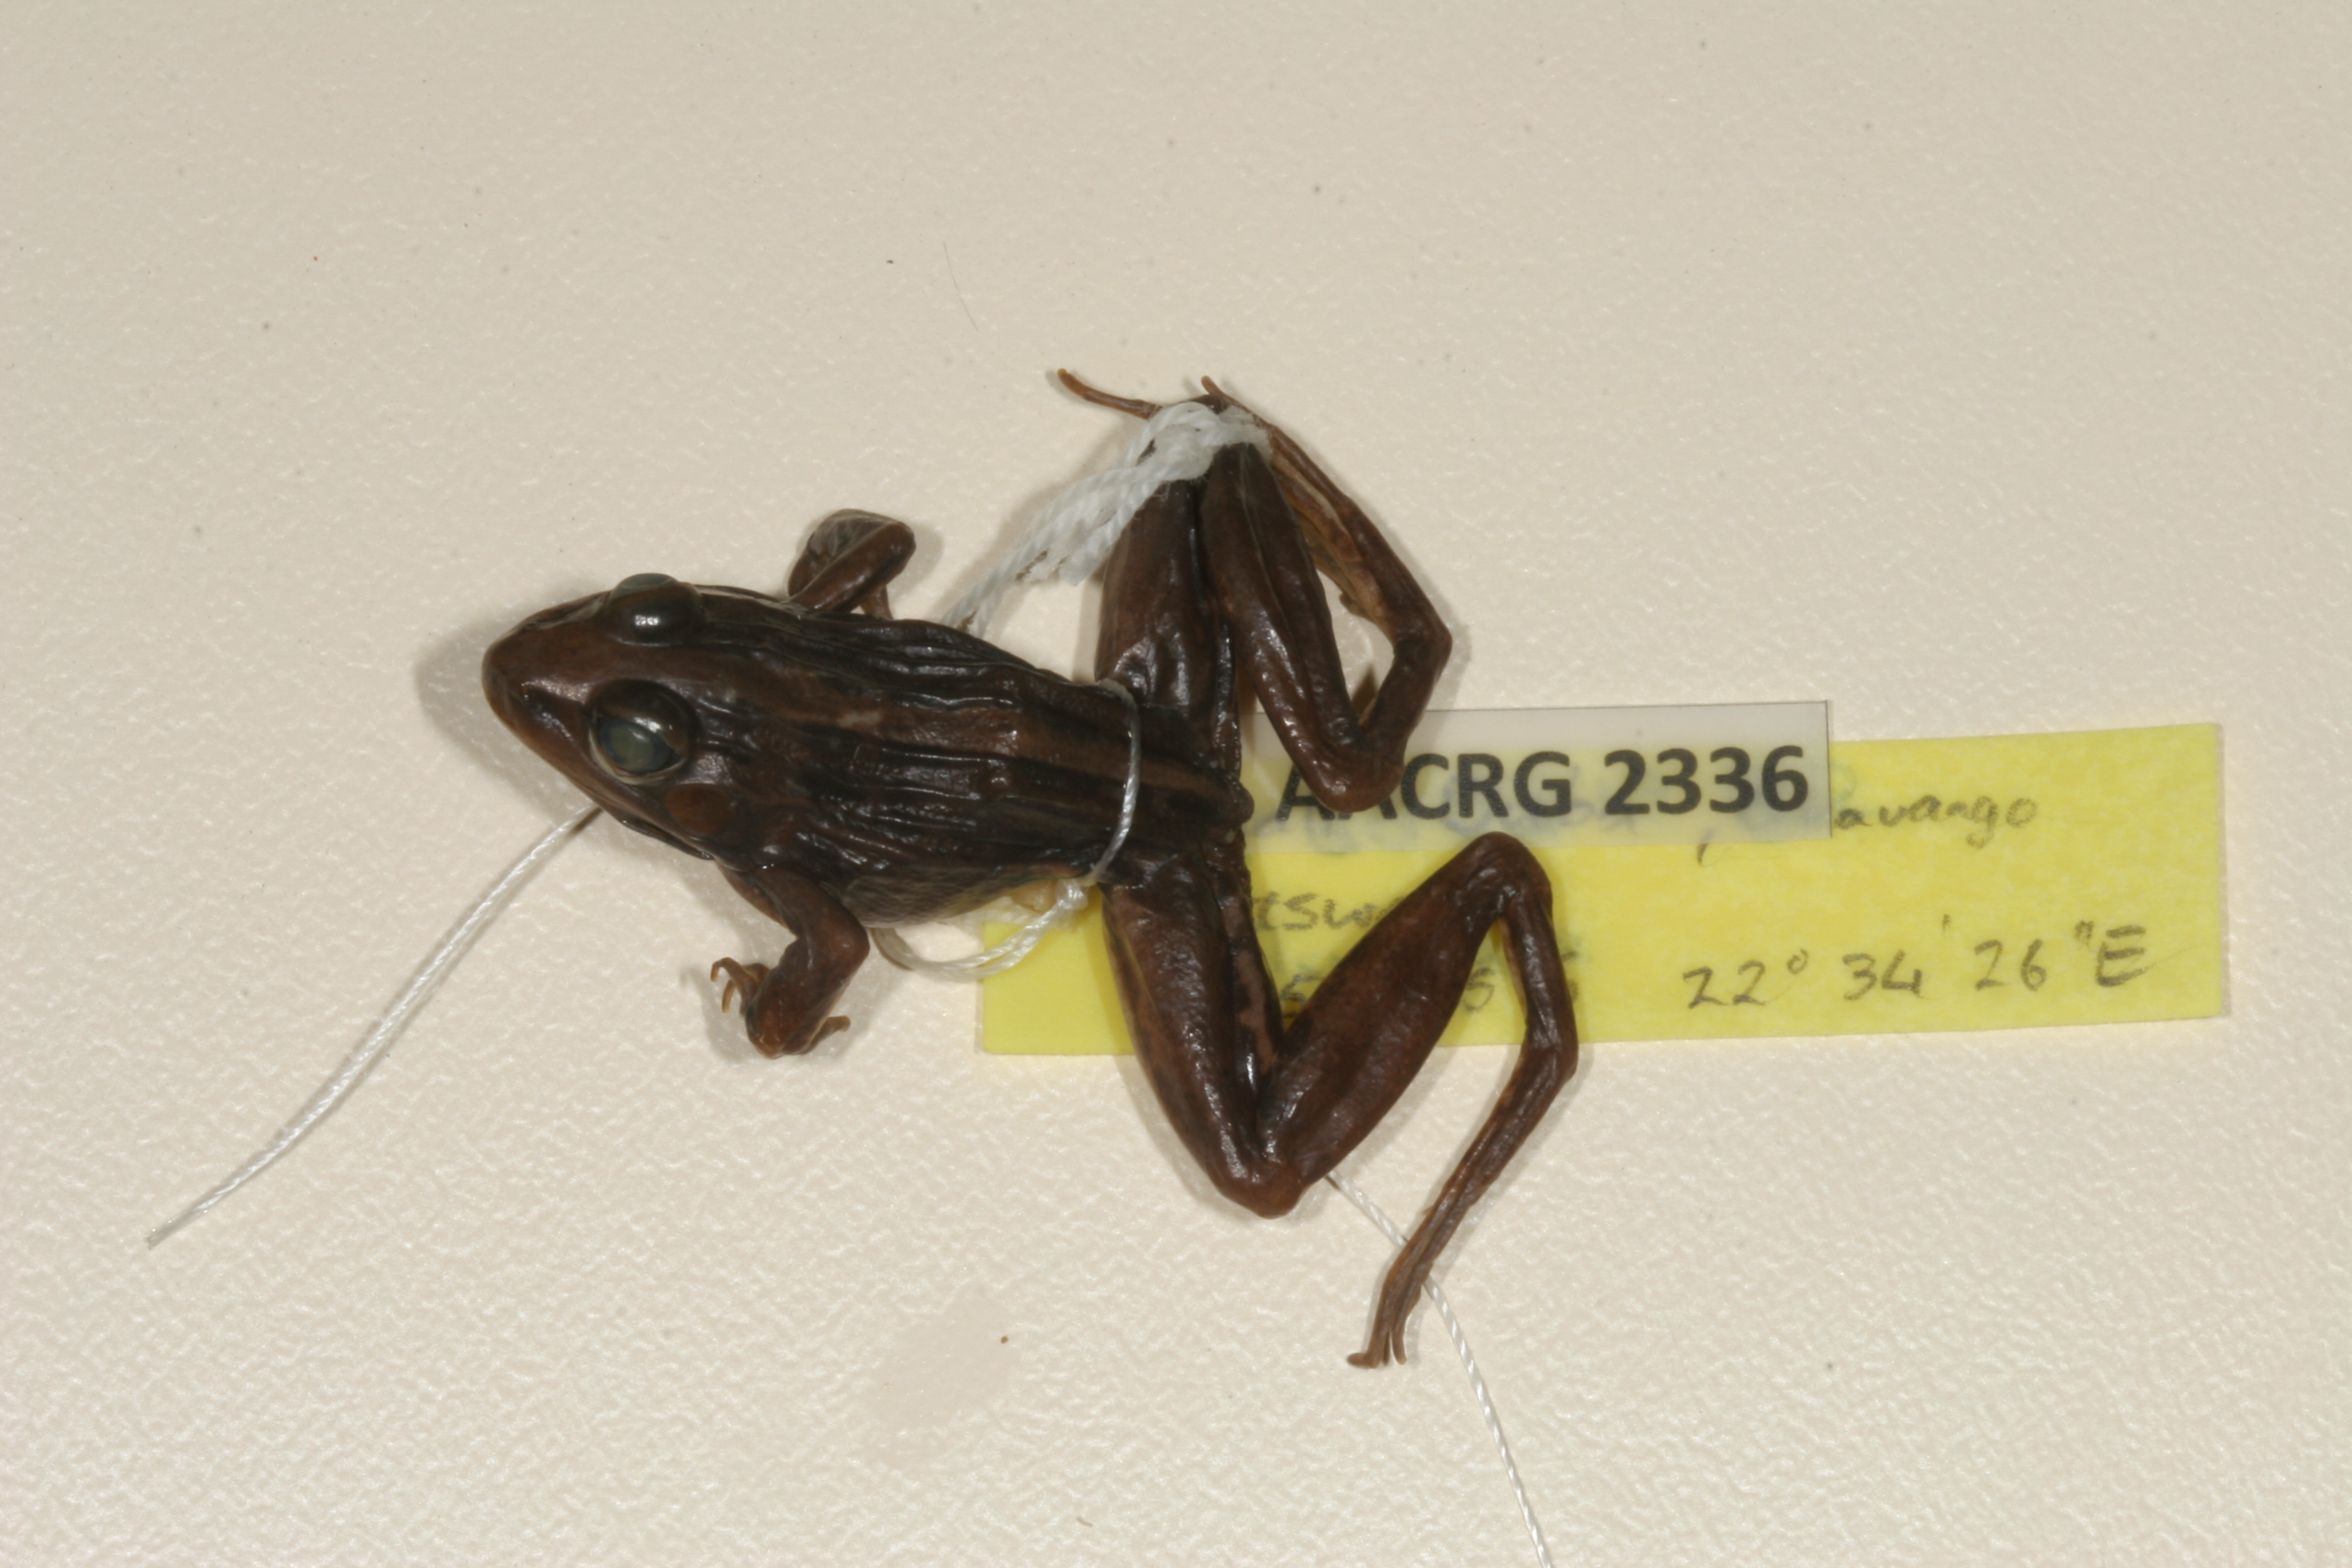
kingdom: Animalia
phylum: Chordata
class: Amphibia
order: Anura
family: Ptychadenidae
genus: Ptychadena
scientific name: Ptychadena mascareniensis
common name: Mascarene grass frog
